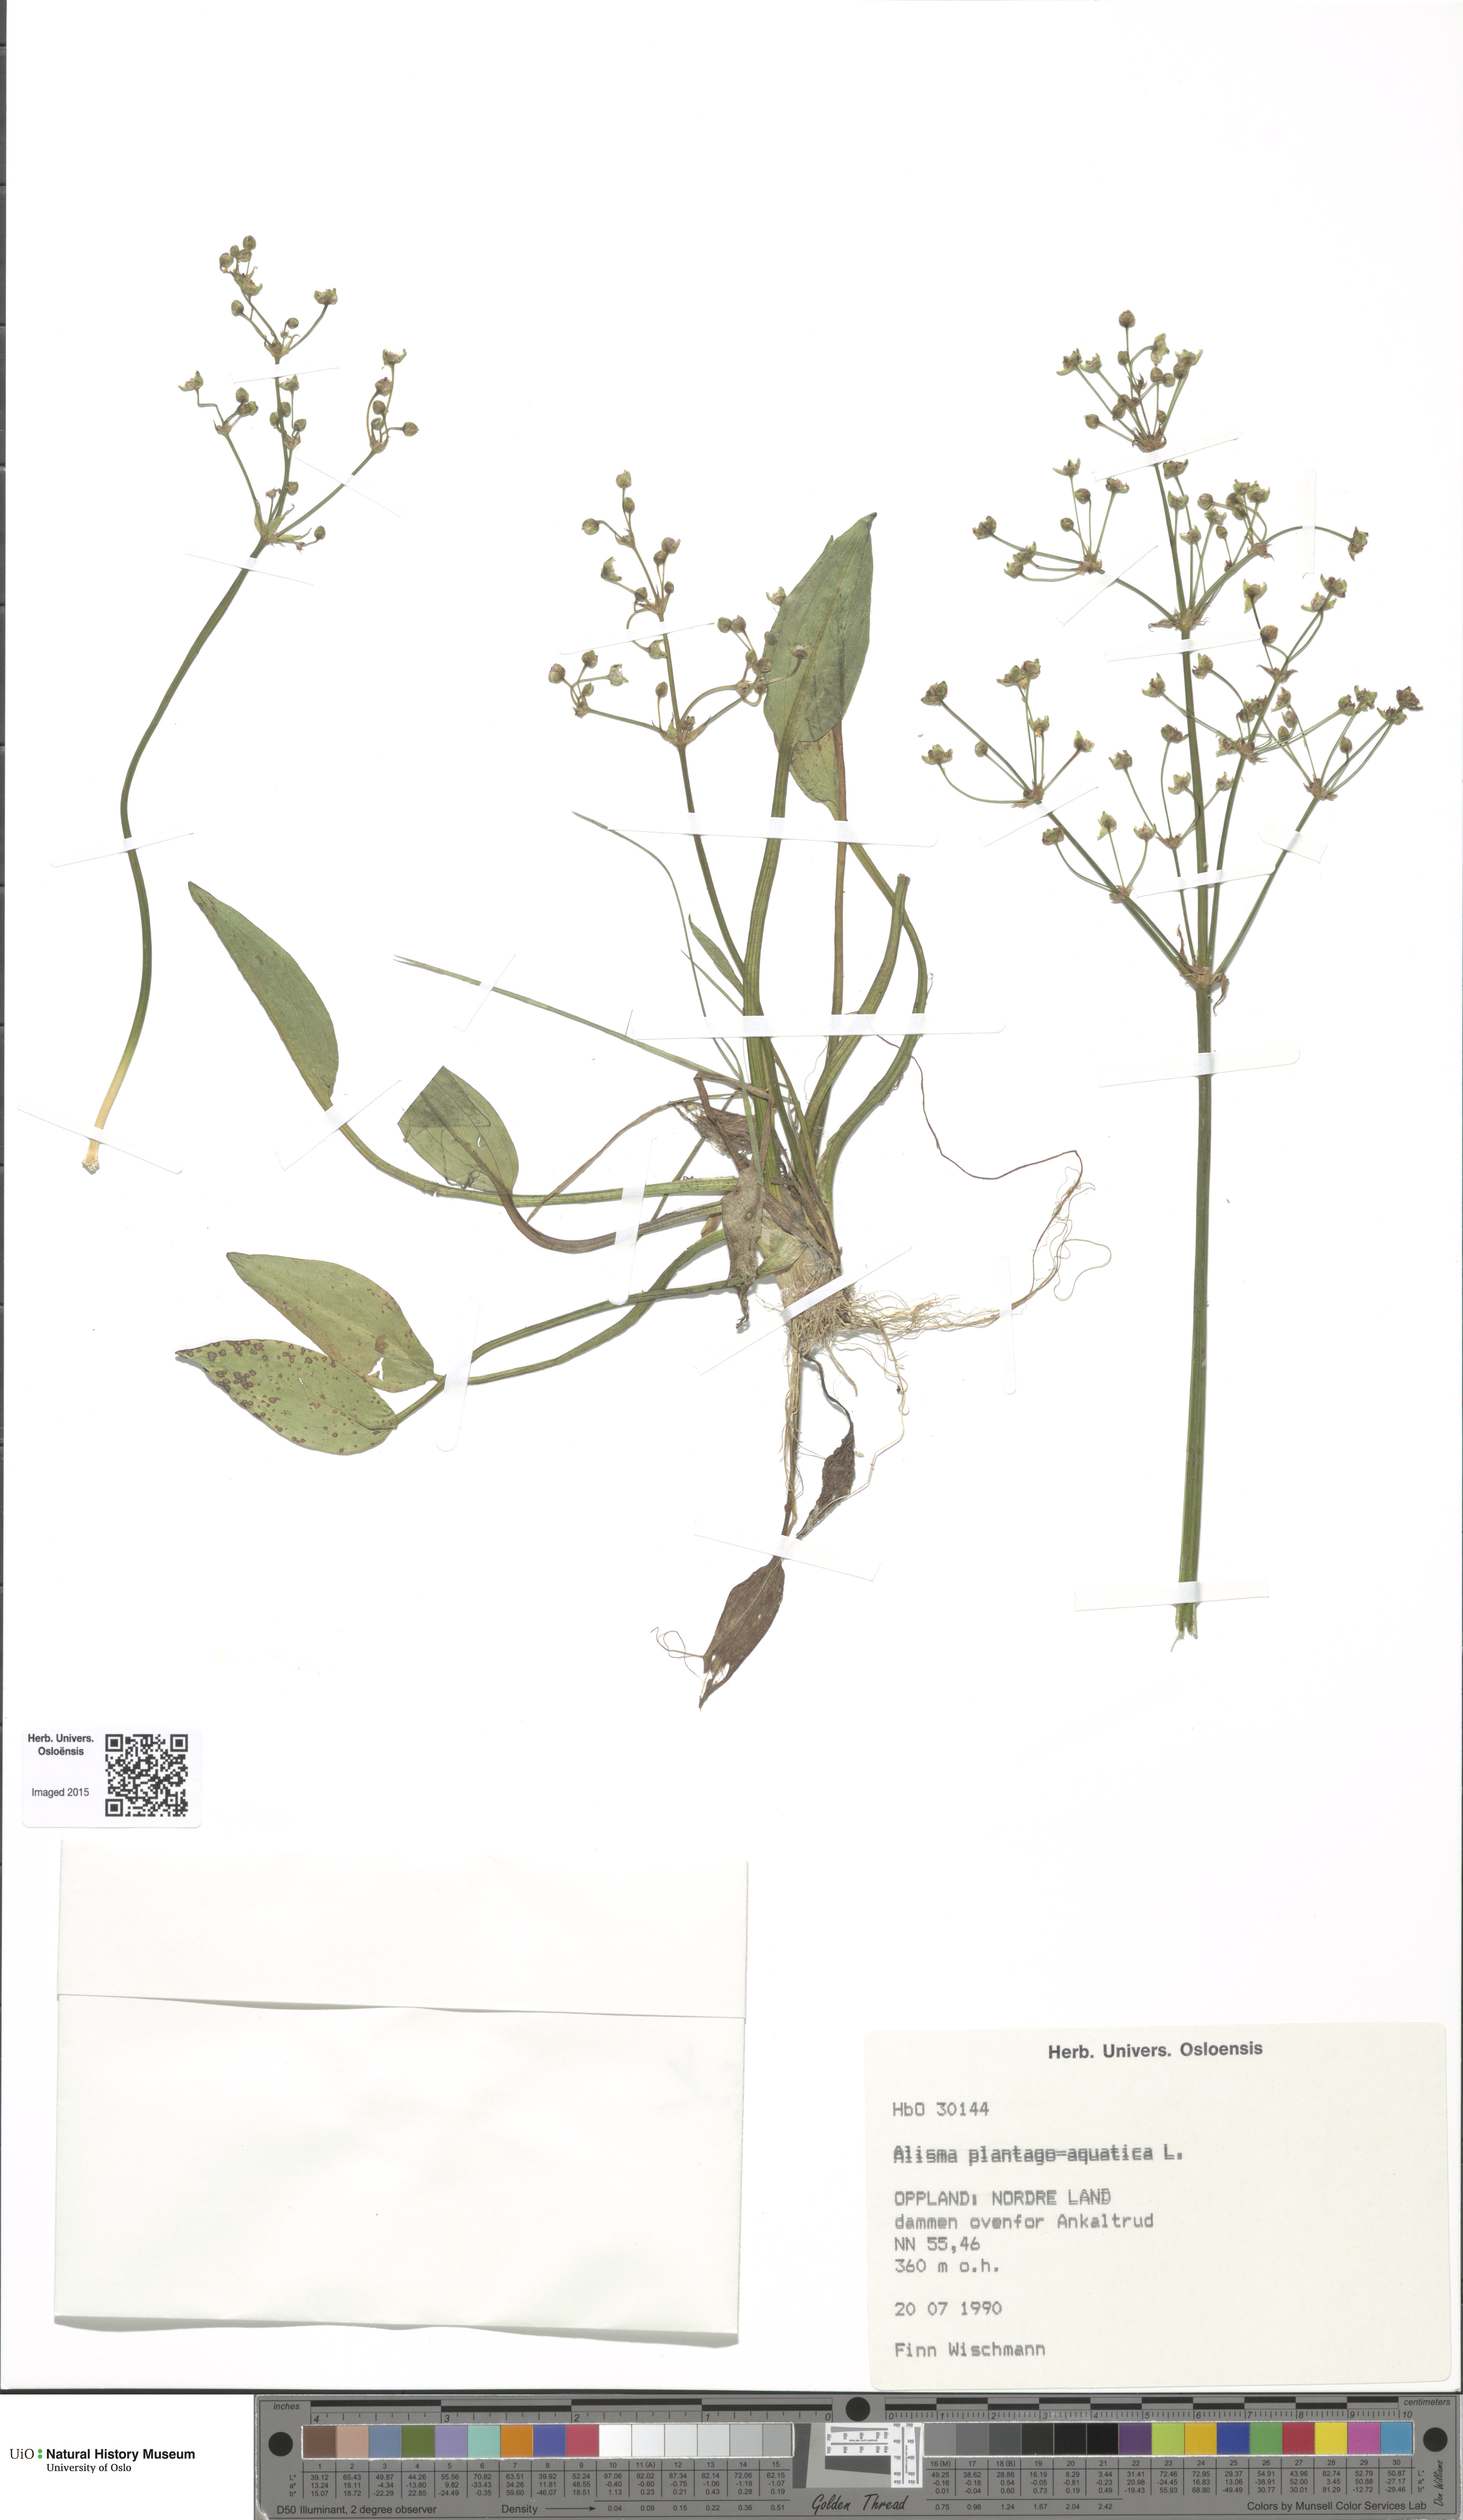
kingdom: Plantae
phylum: Tracheophyta
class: Liliopsida
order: Alismatales
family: Alismataceae
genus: Alisma
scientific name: Alisma plantago-aquatica
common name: Water-plantain
